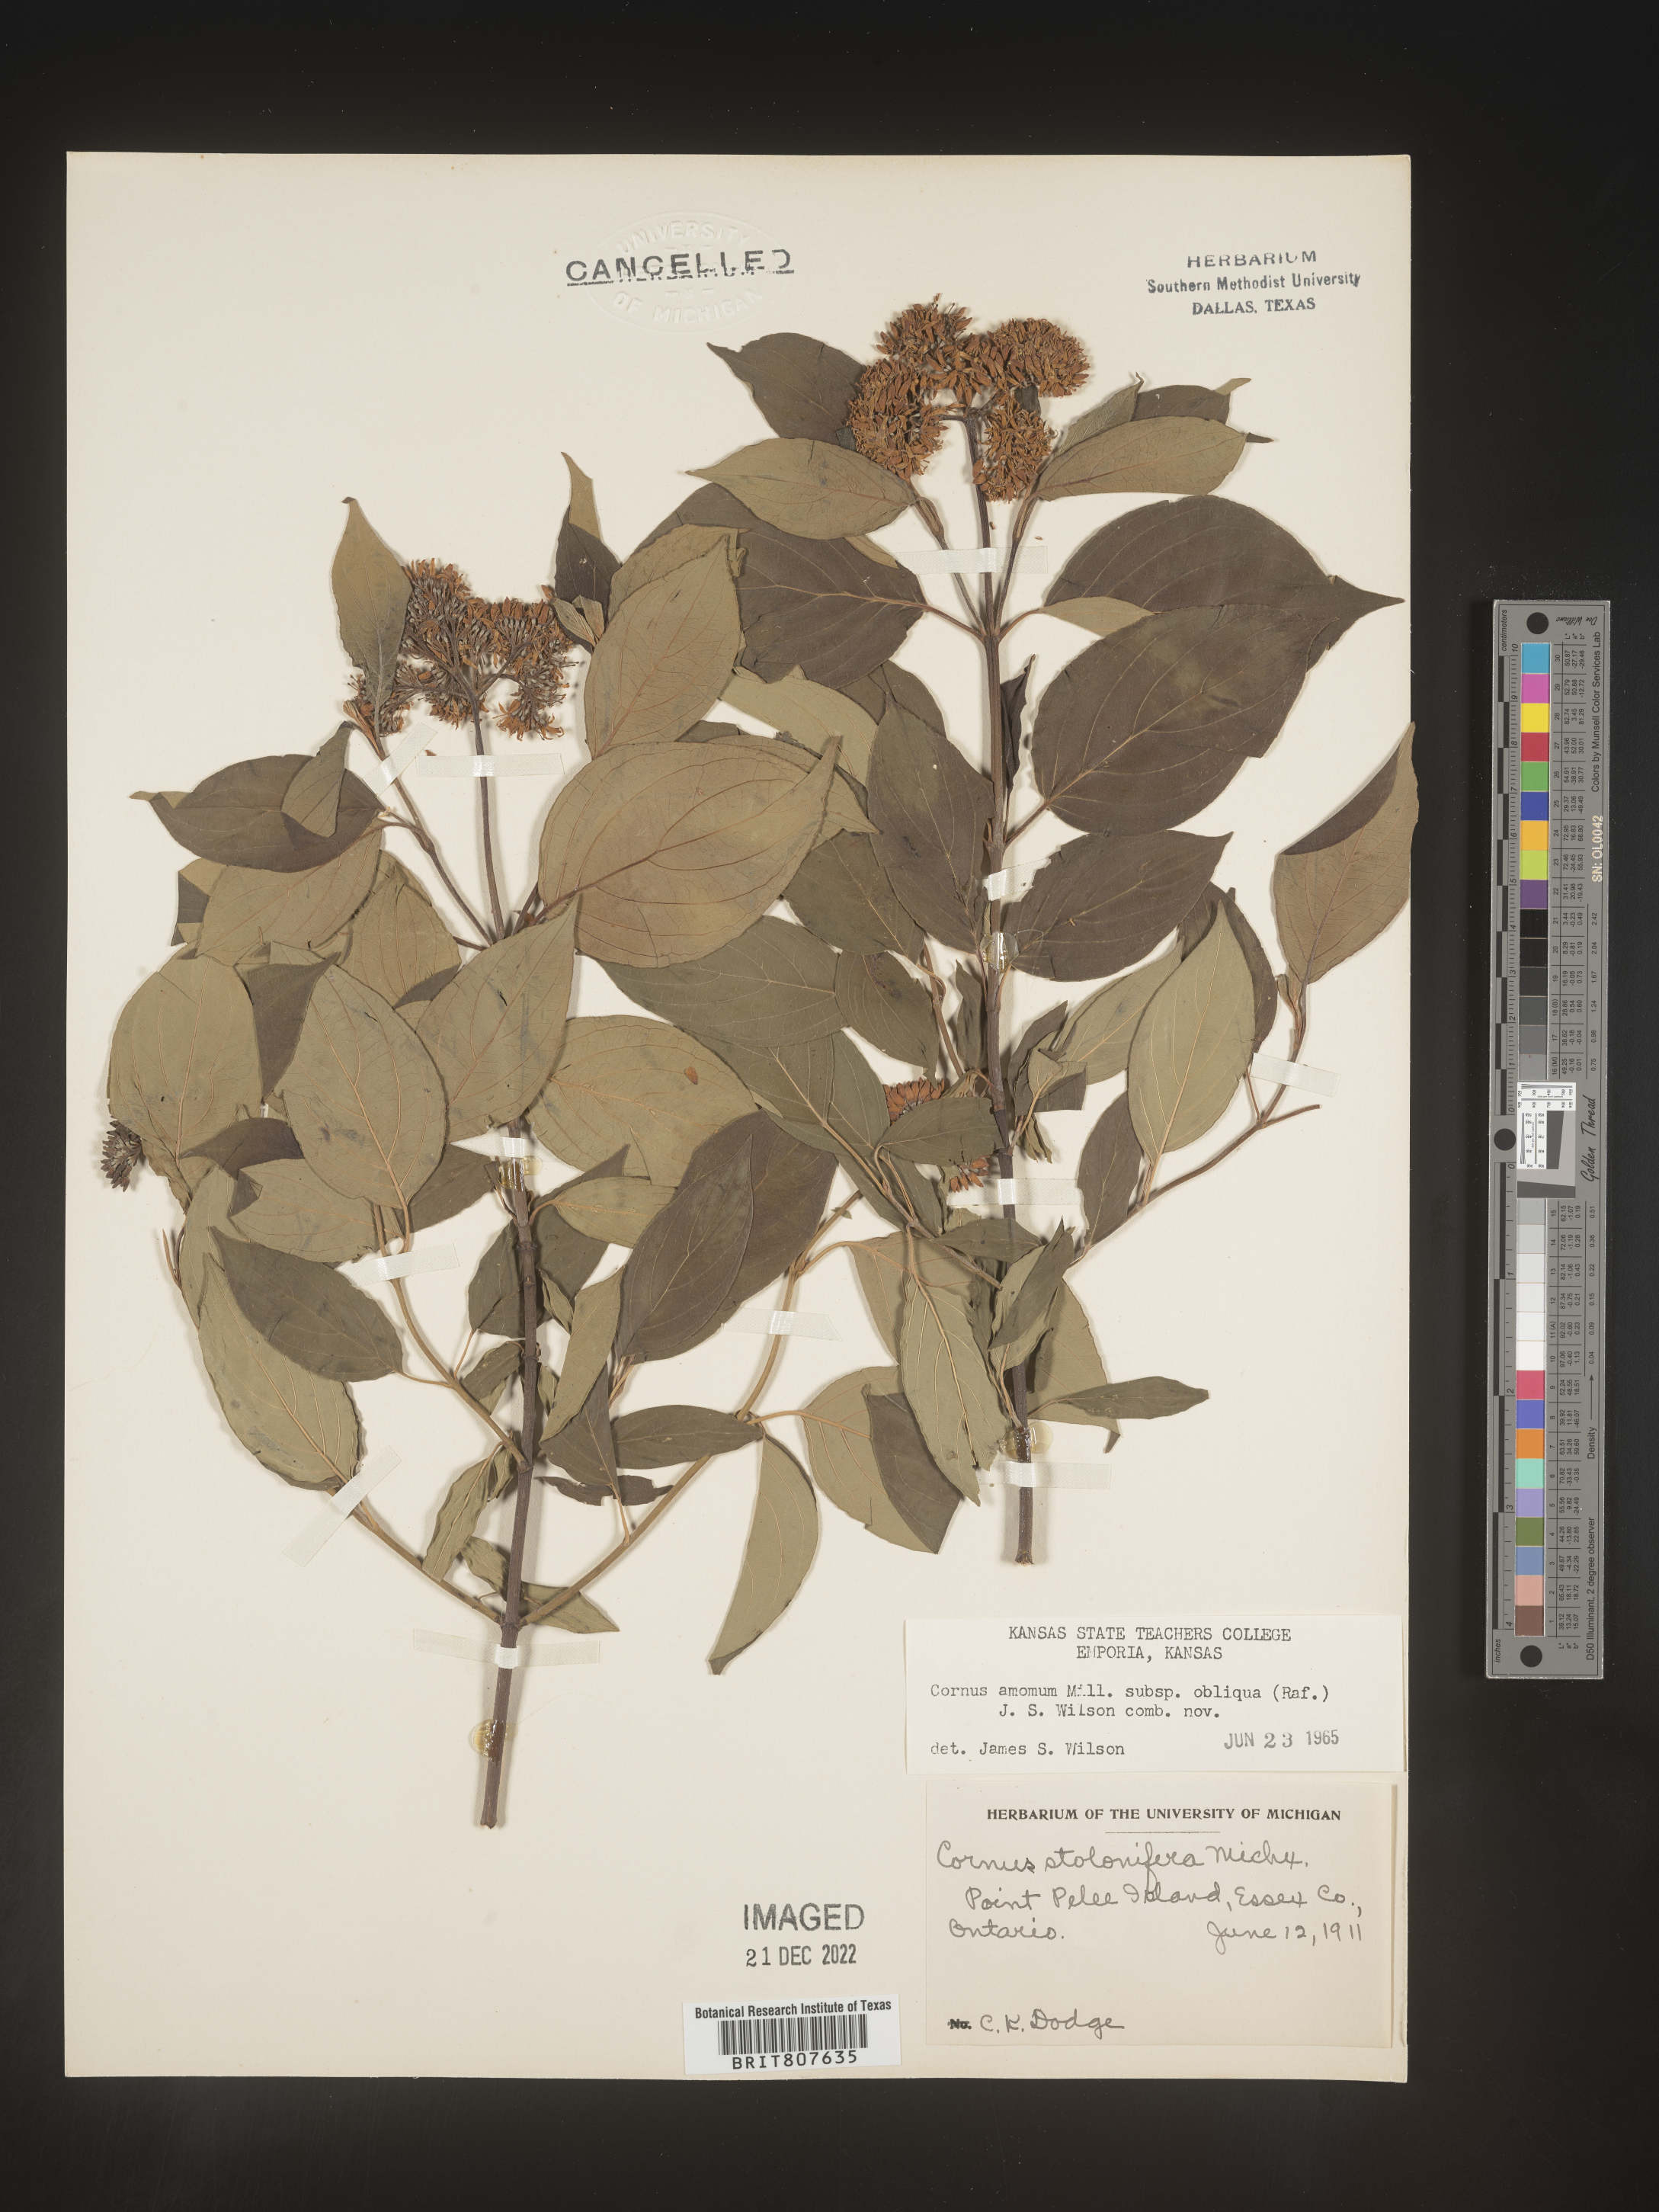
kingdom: Plantae
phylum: Tracheophyta
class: Magnoliopsida
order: Cornales
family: Cornaceae
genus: Cornus
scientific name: Cornus obliqua
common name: Pale dogwood
